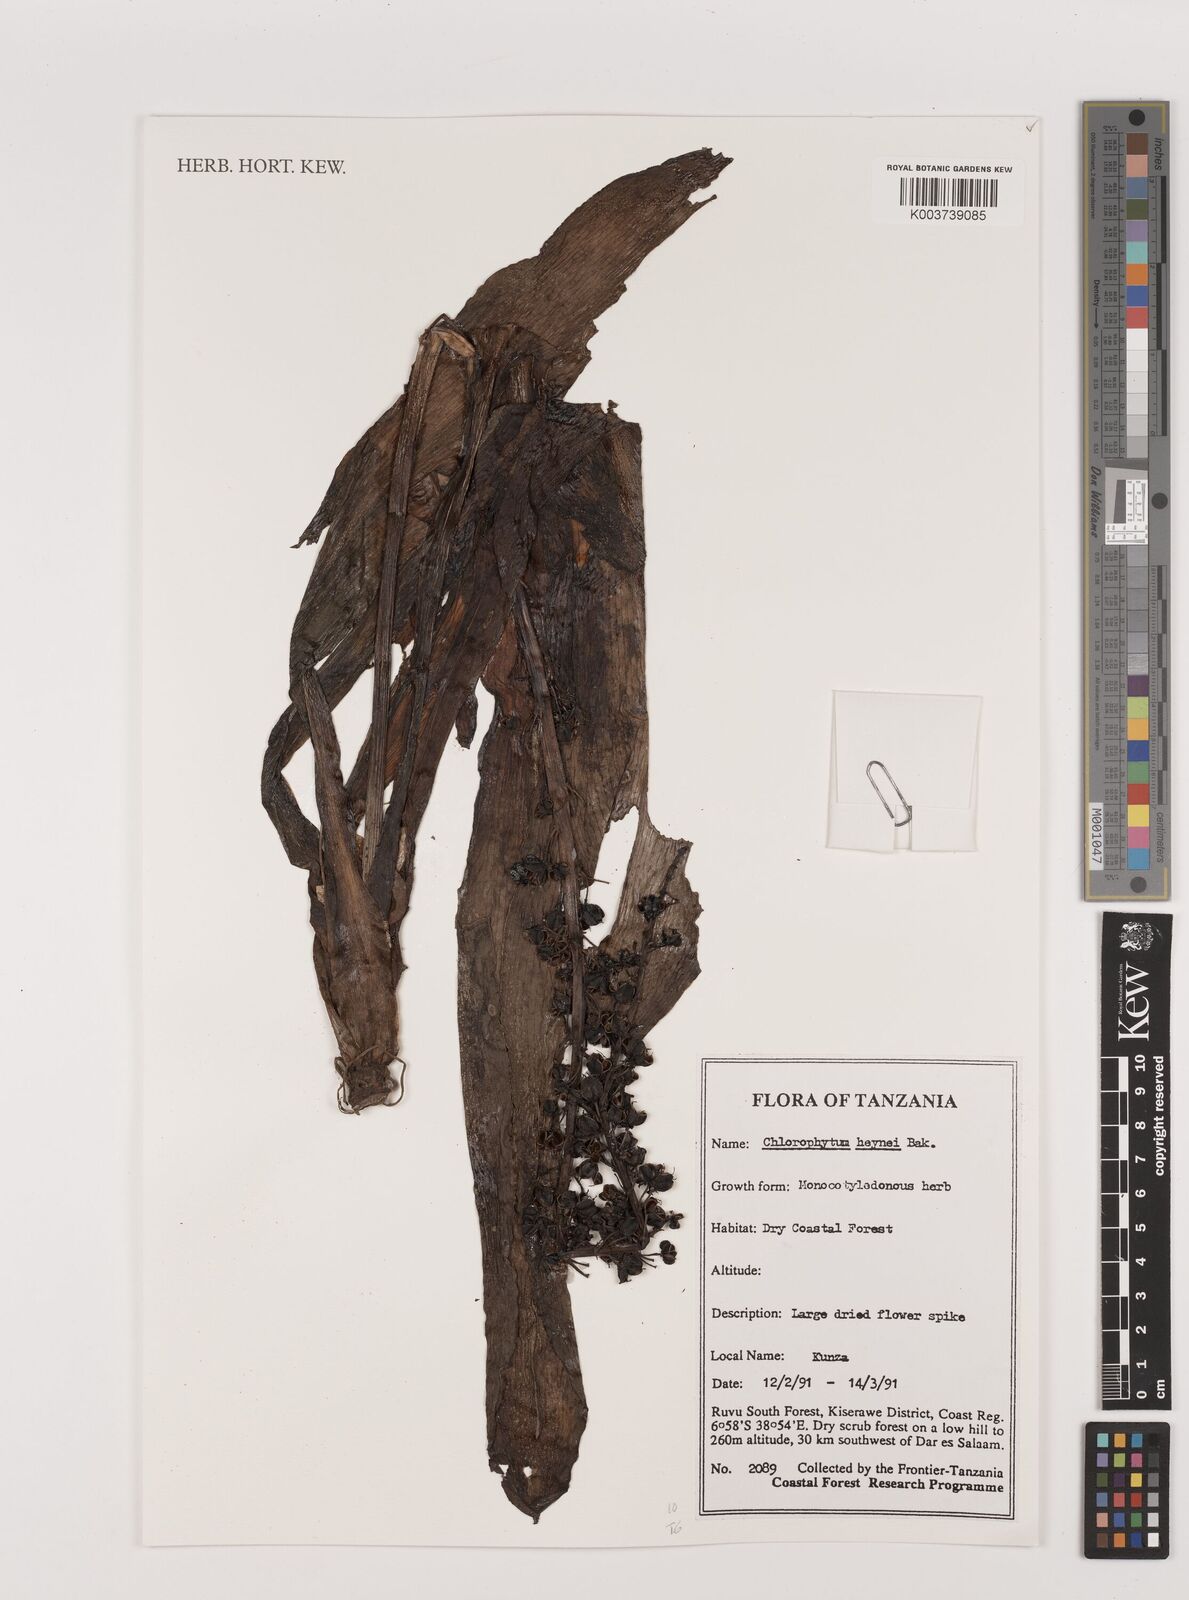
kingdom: Plantae
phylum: Tracheophyta
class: Liliopsida
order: Asparagales
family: Asparagaceae
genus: Chlorophytum
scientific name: Chlorophytum heynei
